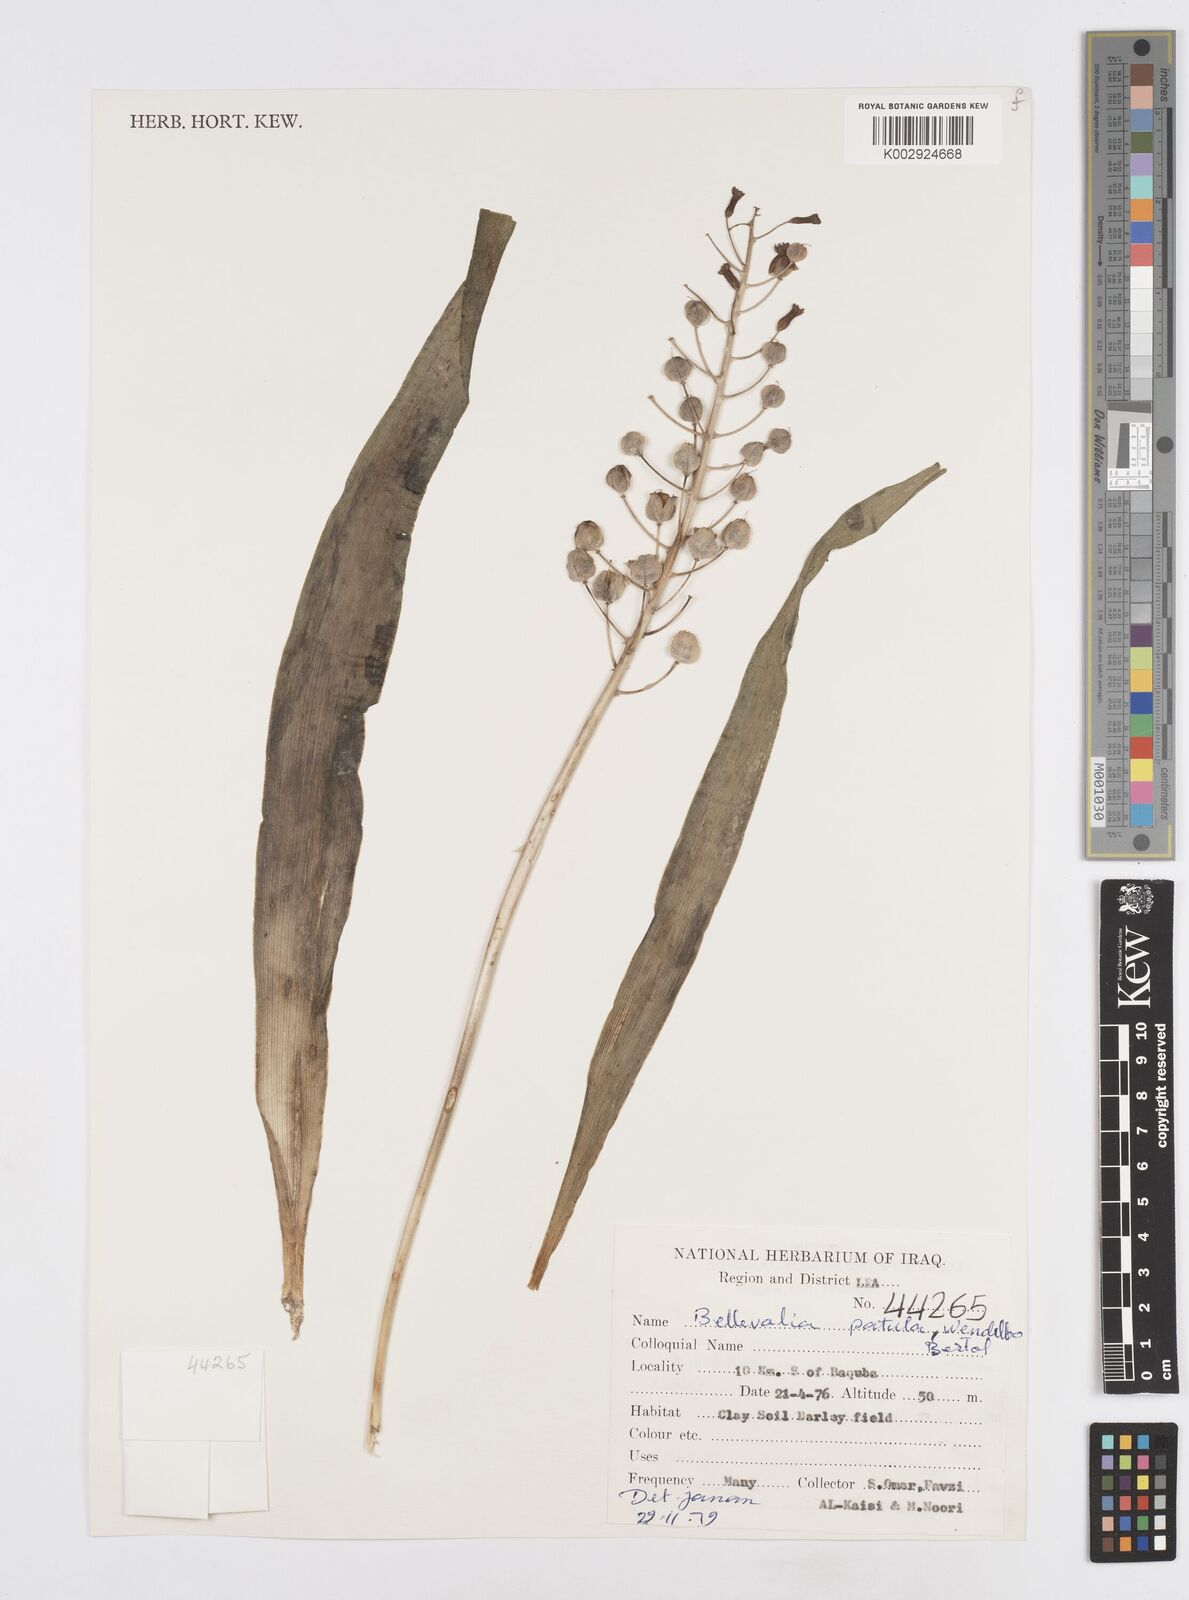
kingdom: Plantae
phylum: Tracheophyta
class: Liliopsida
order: Asparagales
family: Asparagaceae
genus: Bellevalia
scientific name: Bellevalia
